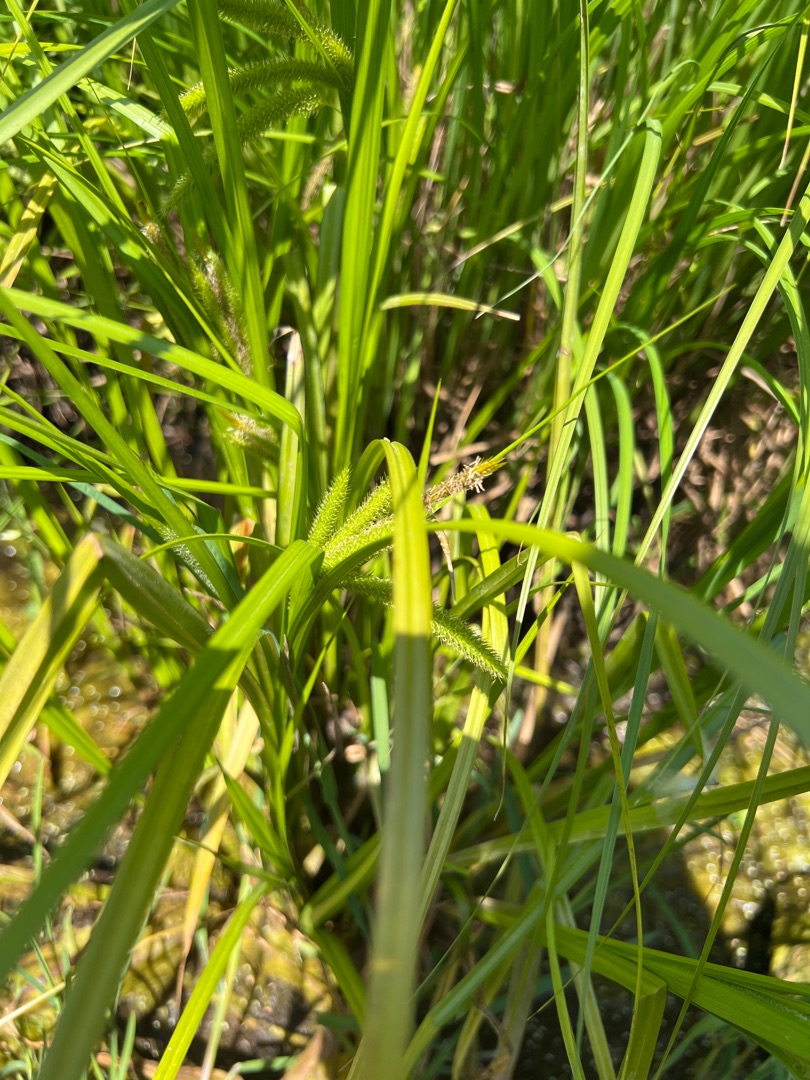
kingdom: Plantae
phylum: Tracheophyta
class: Liliopsida
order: Poales
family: Cyperaceae
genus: Carex
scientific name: Carex pseudocyperus
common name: Knippe-star
